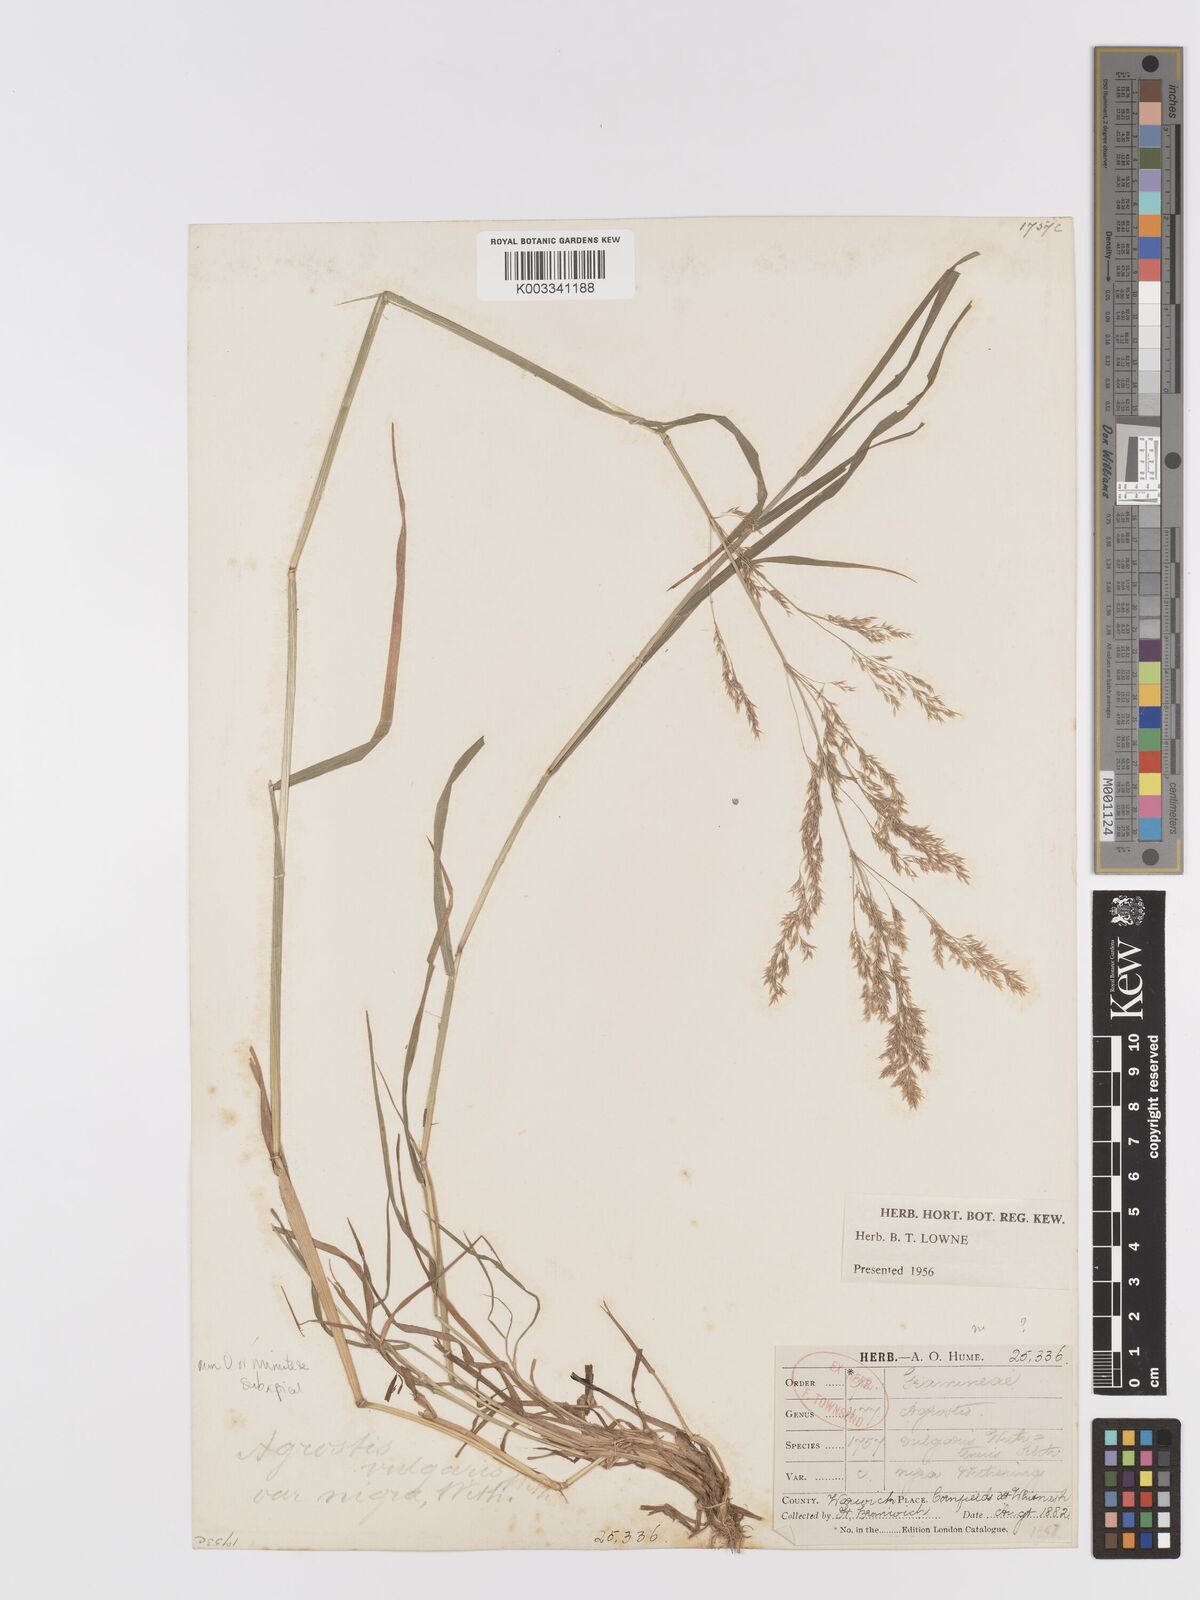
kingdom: Plantae
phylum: Tracheophyta
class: Liliopsida
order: Poales
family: Poaceae
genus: Agrostis
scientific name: Agrostis gigantea
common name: Black bent
